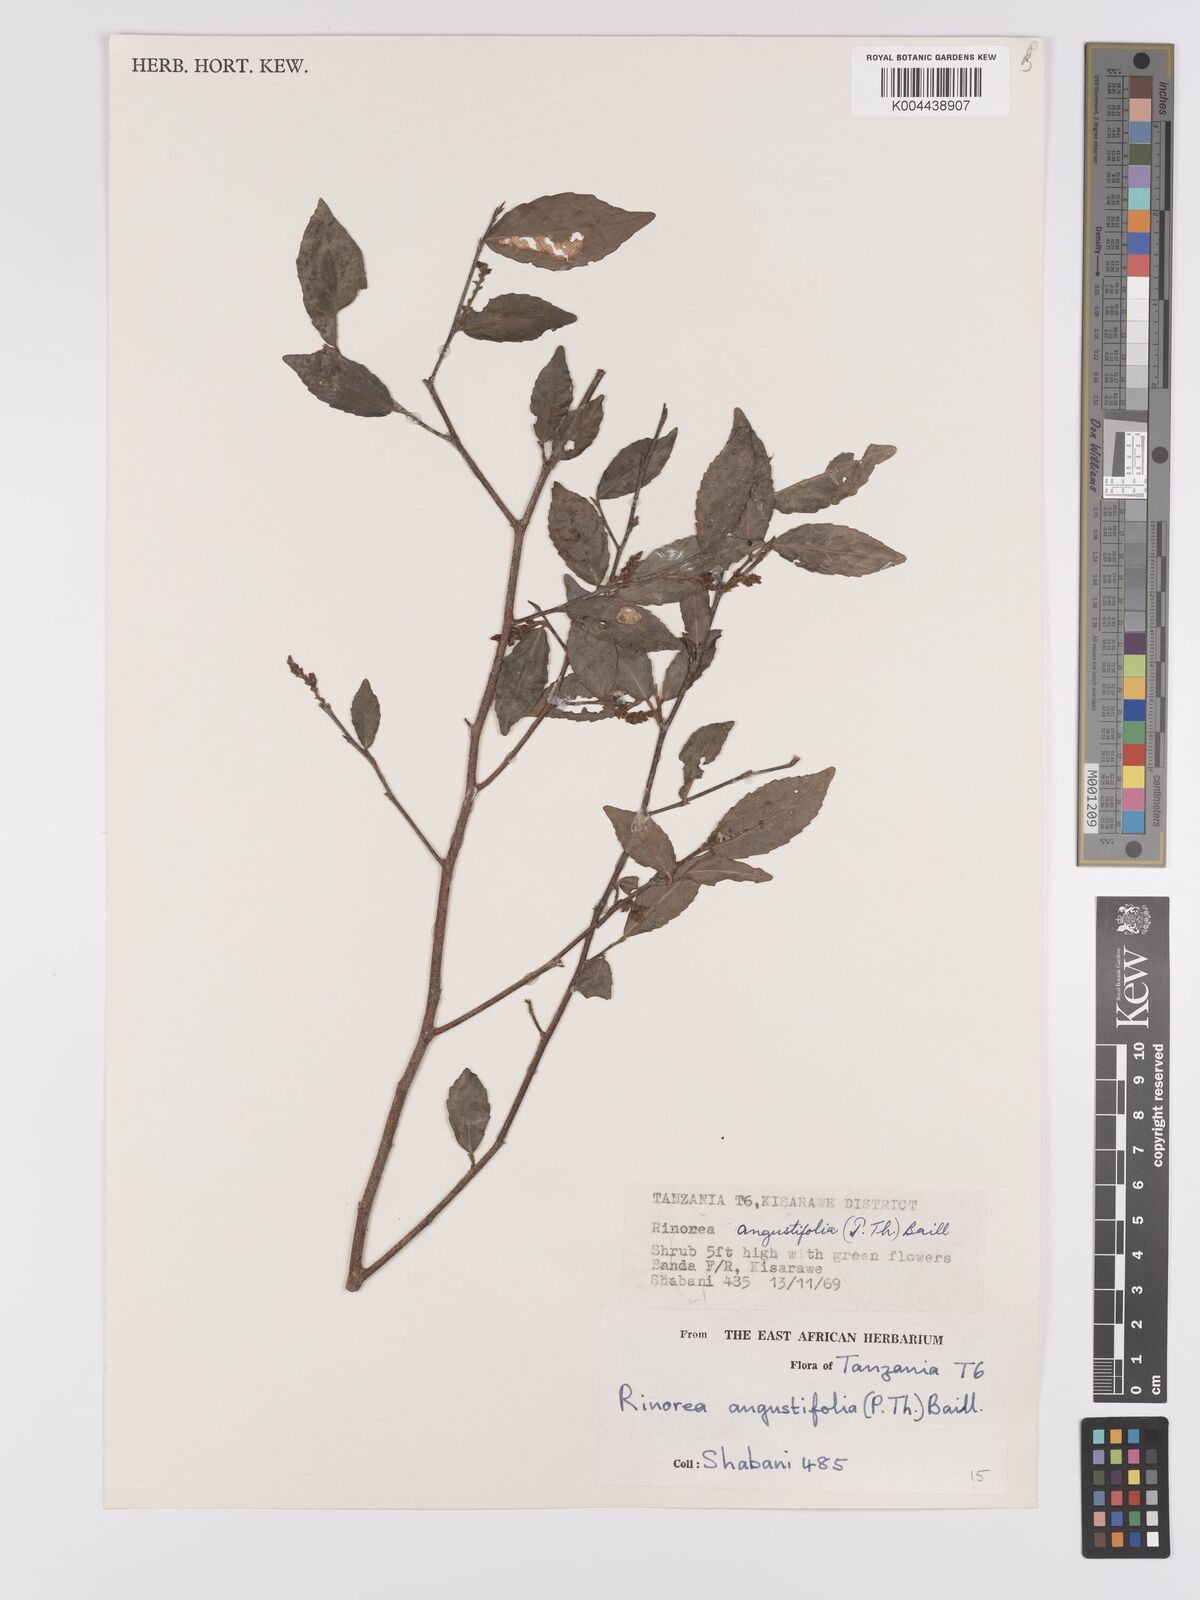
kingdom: Plantae
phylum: Tracheophyta
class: Magnoliopsida
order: Malpighiales
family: Violaceae
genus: Rinorea
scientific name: Rinorea angustifolia
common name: White violet-bush
